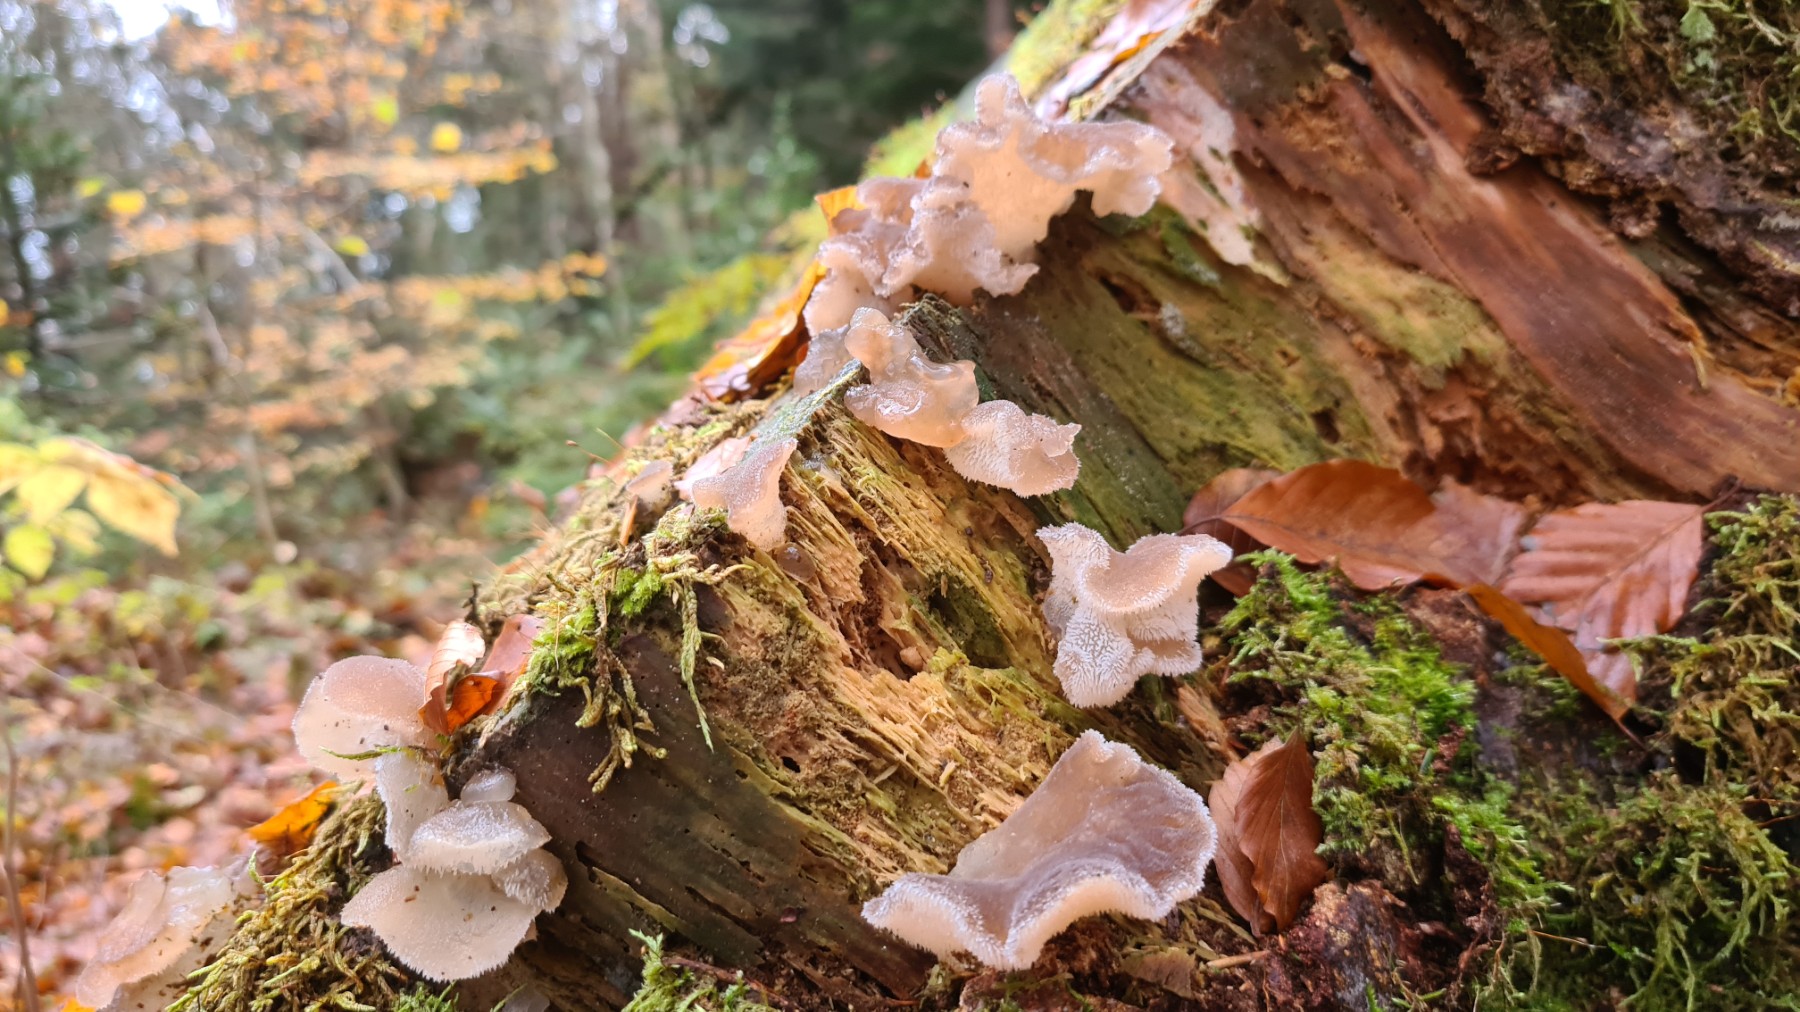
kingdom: Fungi
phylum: Basidiomycota
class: Agaricomycetes
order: Auriculariales
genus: Pseudohydnum
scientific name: Pseudohydnum gelatinosum
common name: bævretand
